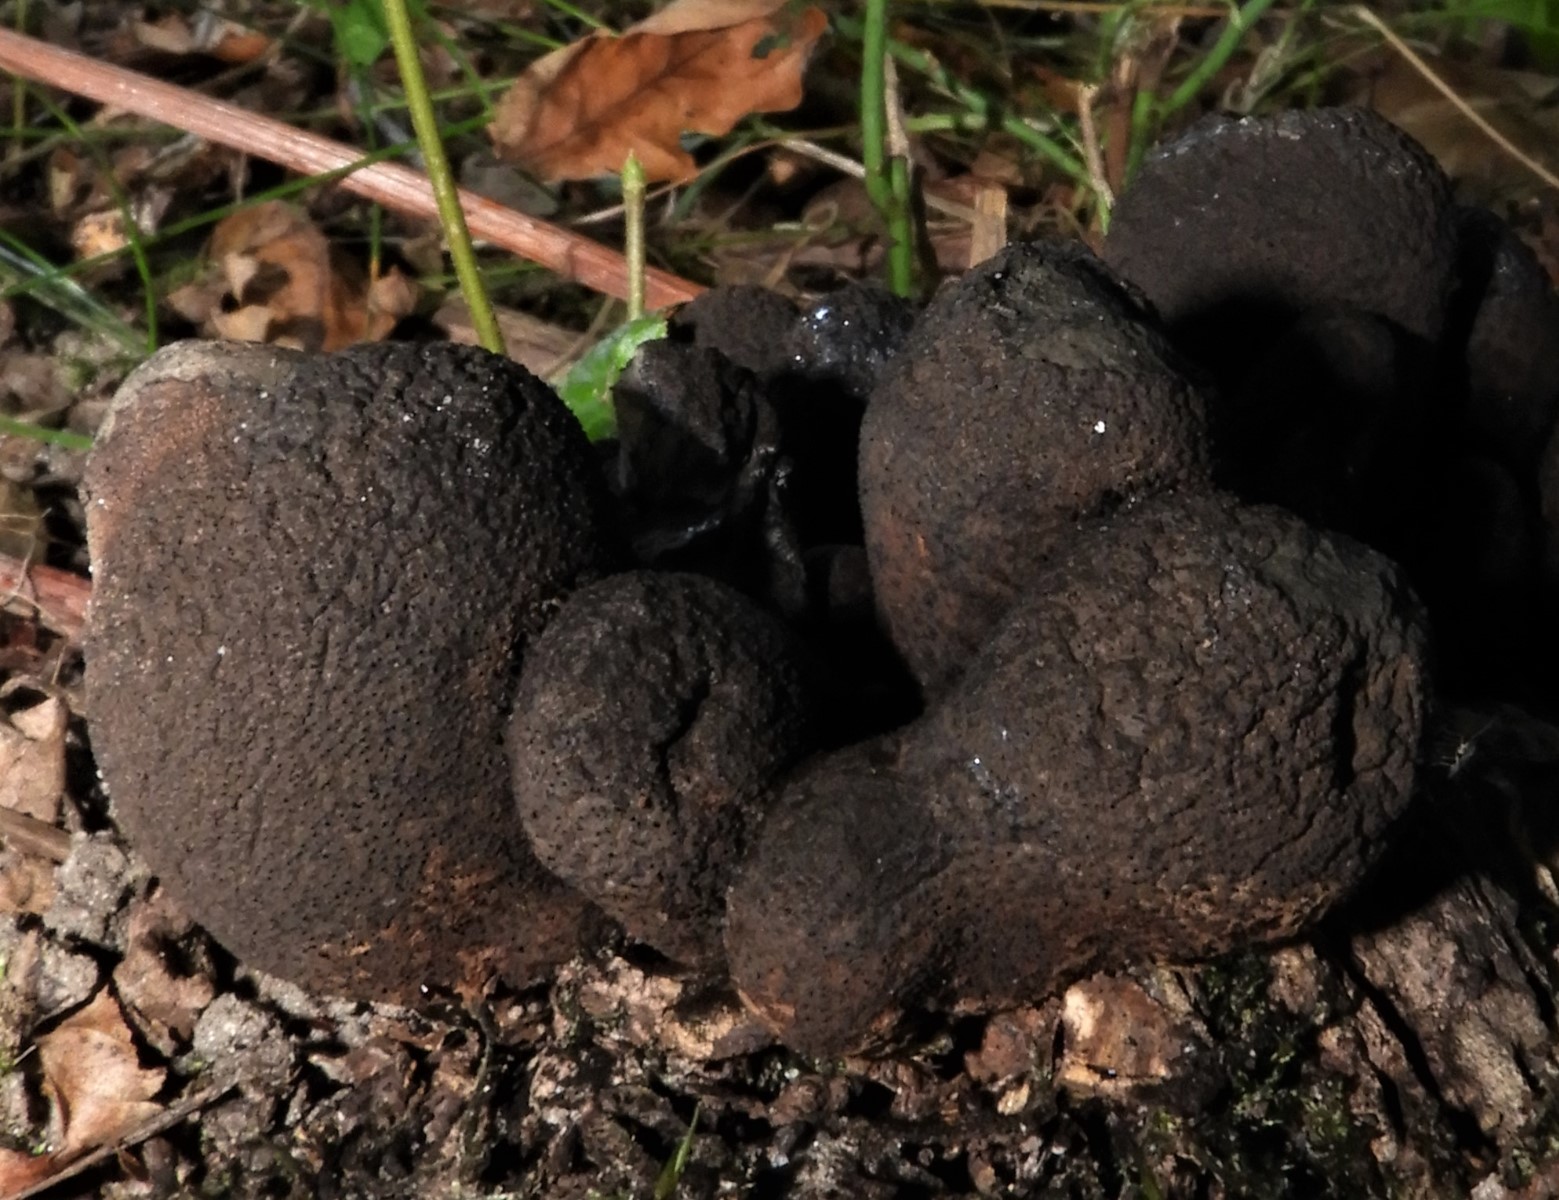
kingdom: Fungi
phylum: Ascomycota
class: Sordariomycetes
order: Xylariales
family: Xylariaceae
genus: Xylaria
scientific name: Xylaria polymorpha
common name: kølle-stødsvamp
